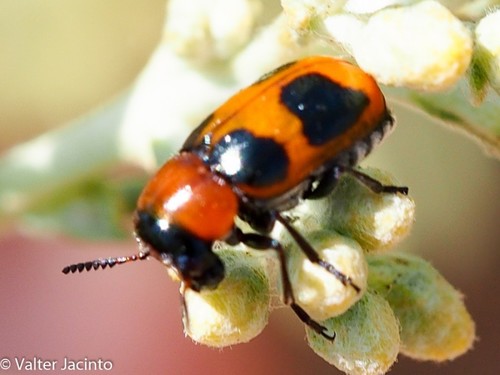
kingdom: Animalia
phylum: Arthropoda
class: Insecta
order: Coleoptera
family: Chrysomelidae
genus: Coptocephala
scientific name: Coptocephala
